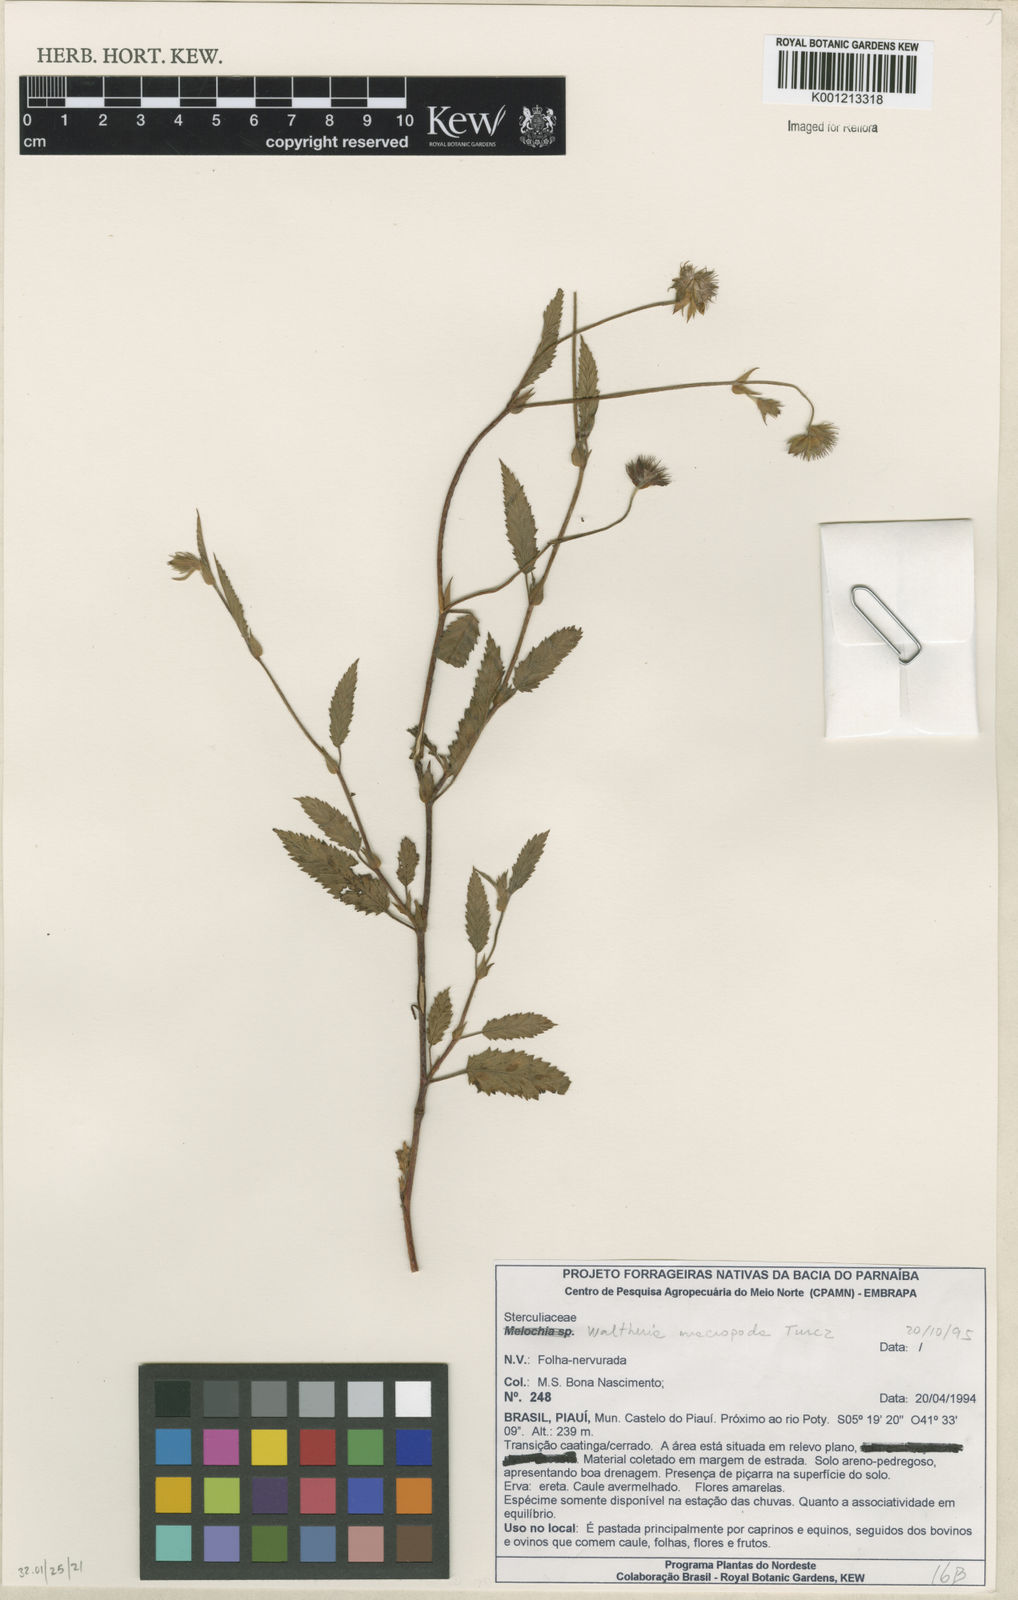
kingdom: Plantae
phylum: Tracheophyta
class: Magnoliopsida
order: Malvales
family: Malvaceae
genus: Waltheria
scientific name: Waltheria bracteosa
